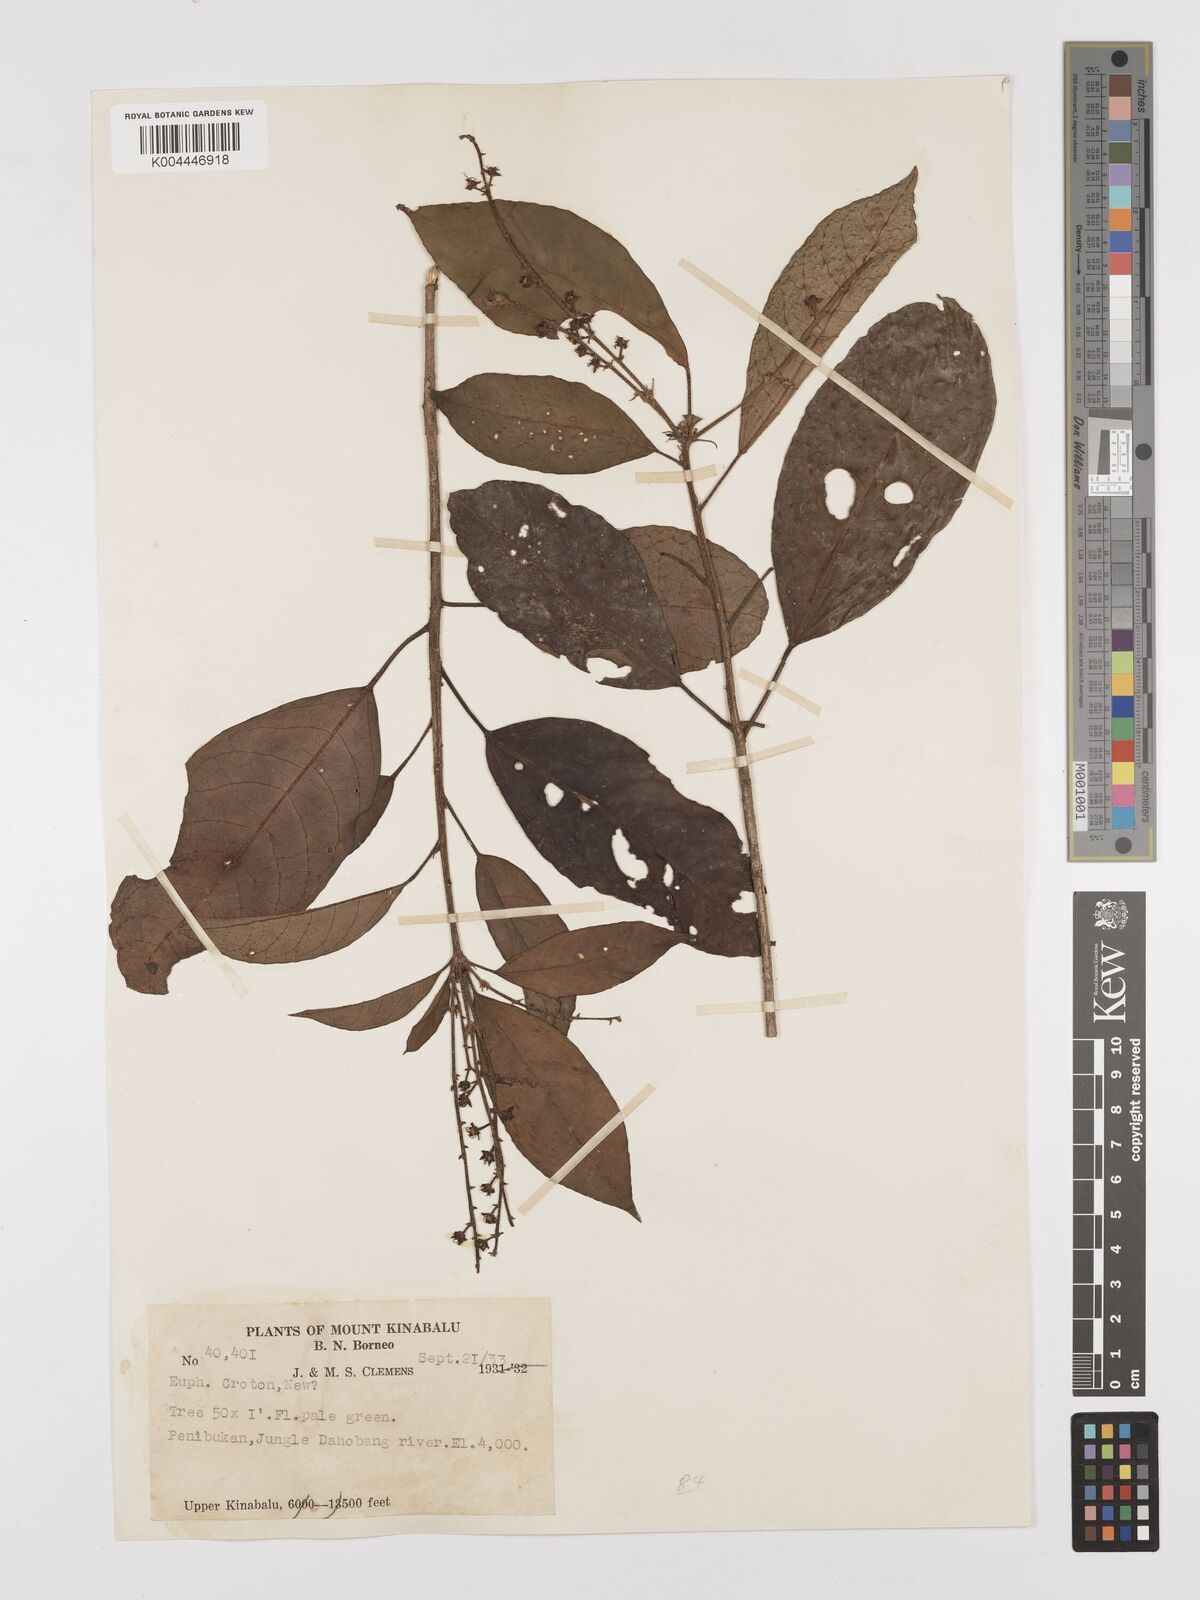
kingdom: Plantae
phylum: Tracheophyta
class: Magnoliopsida
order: Malpighiales
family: Euphorbiaceae
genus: Croton
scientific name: Croton
